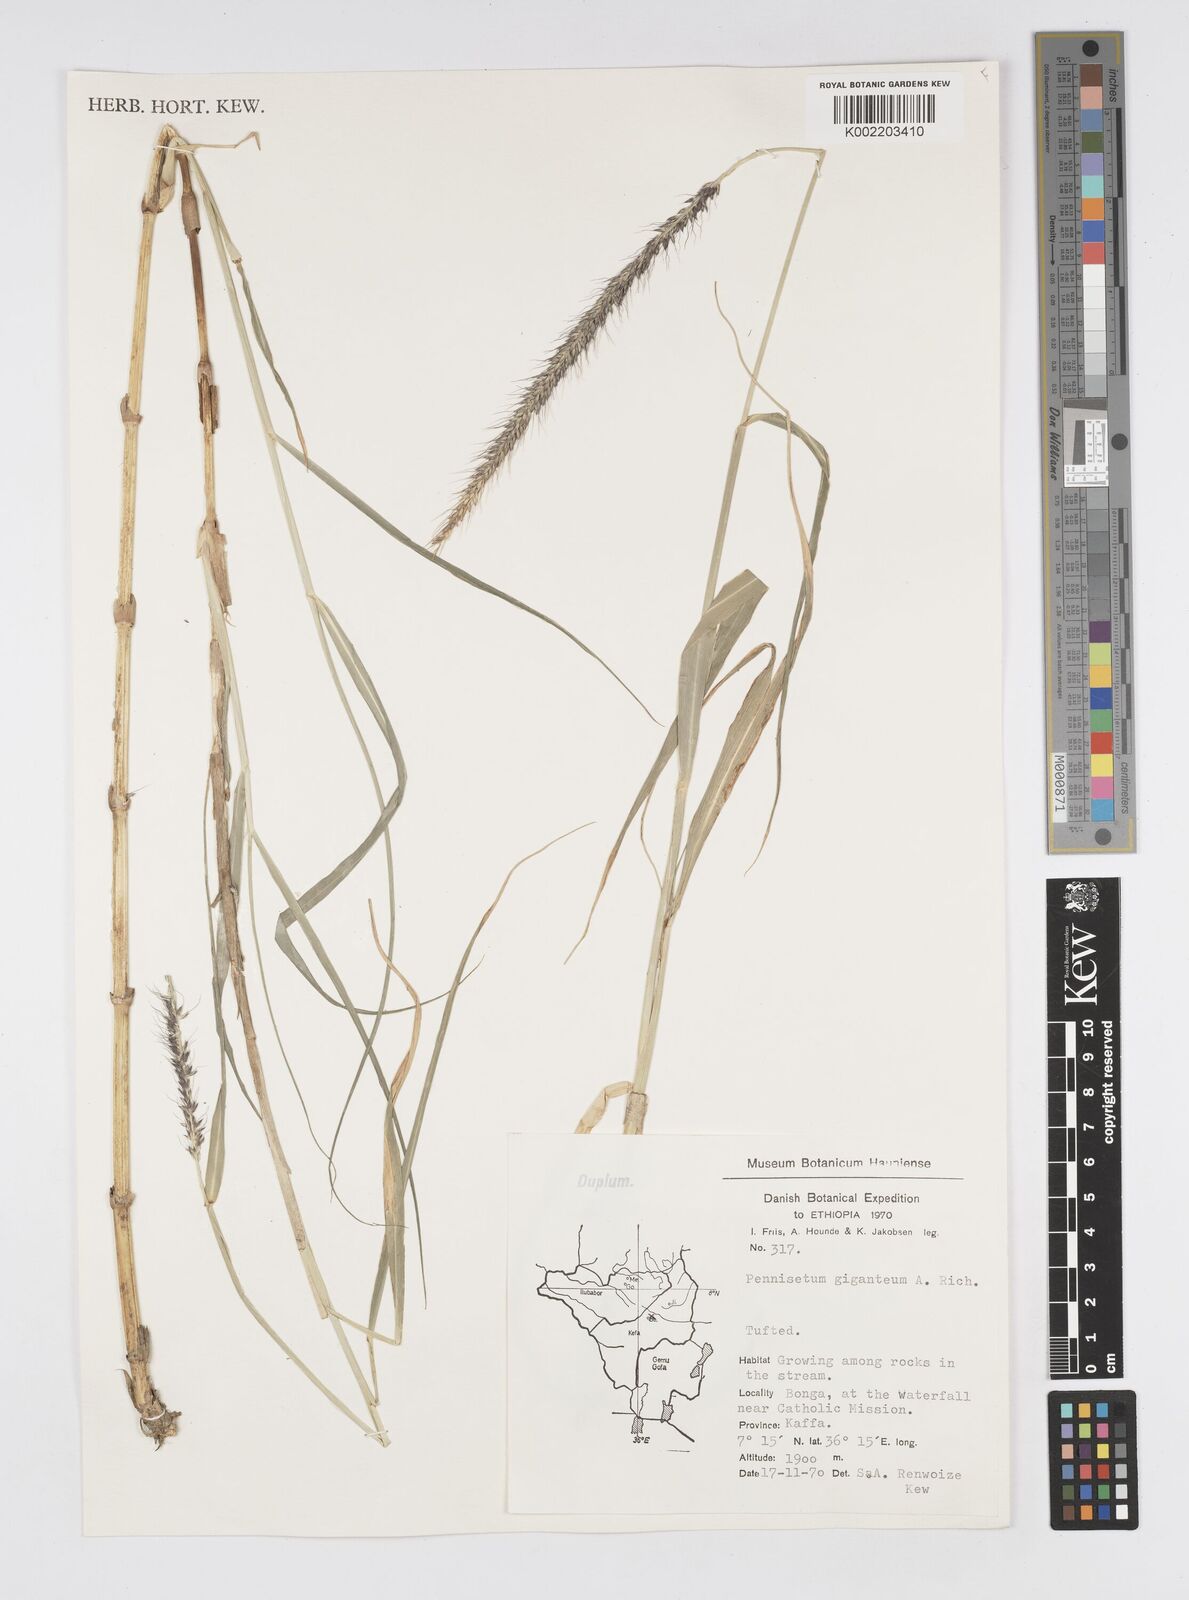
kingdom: Plantae
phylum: Tracheophyta
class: Liliopsida
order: Poales
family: Poaceae
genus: Cenchrus
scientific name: Cenchrus caudatus
